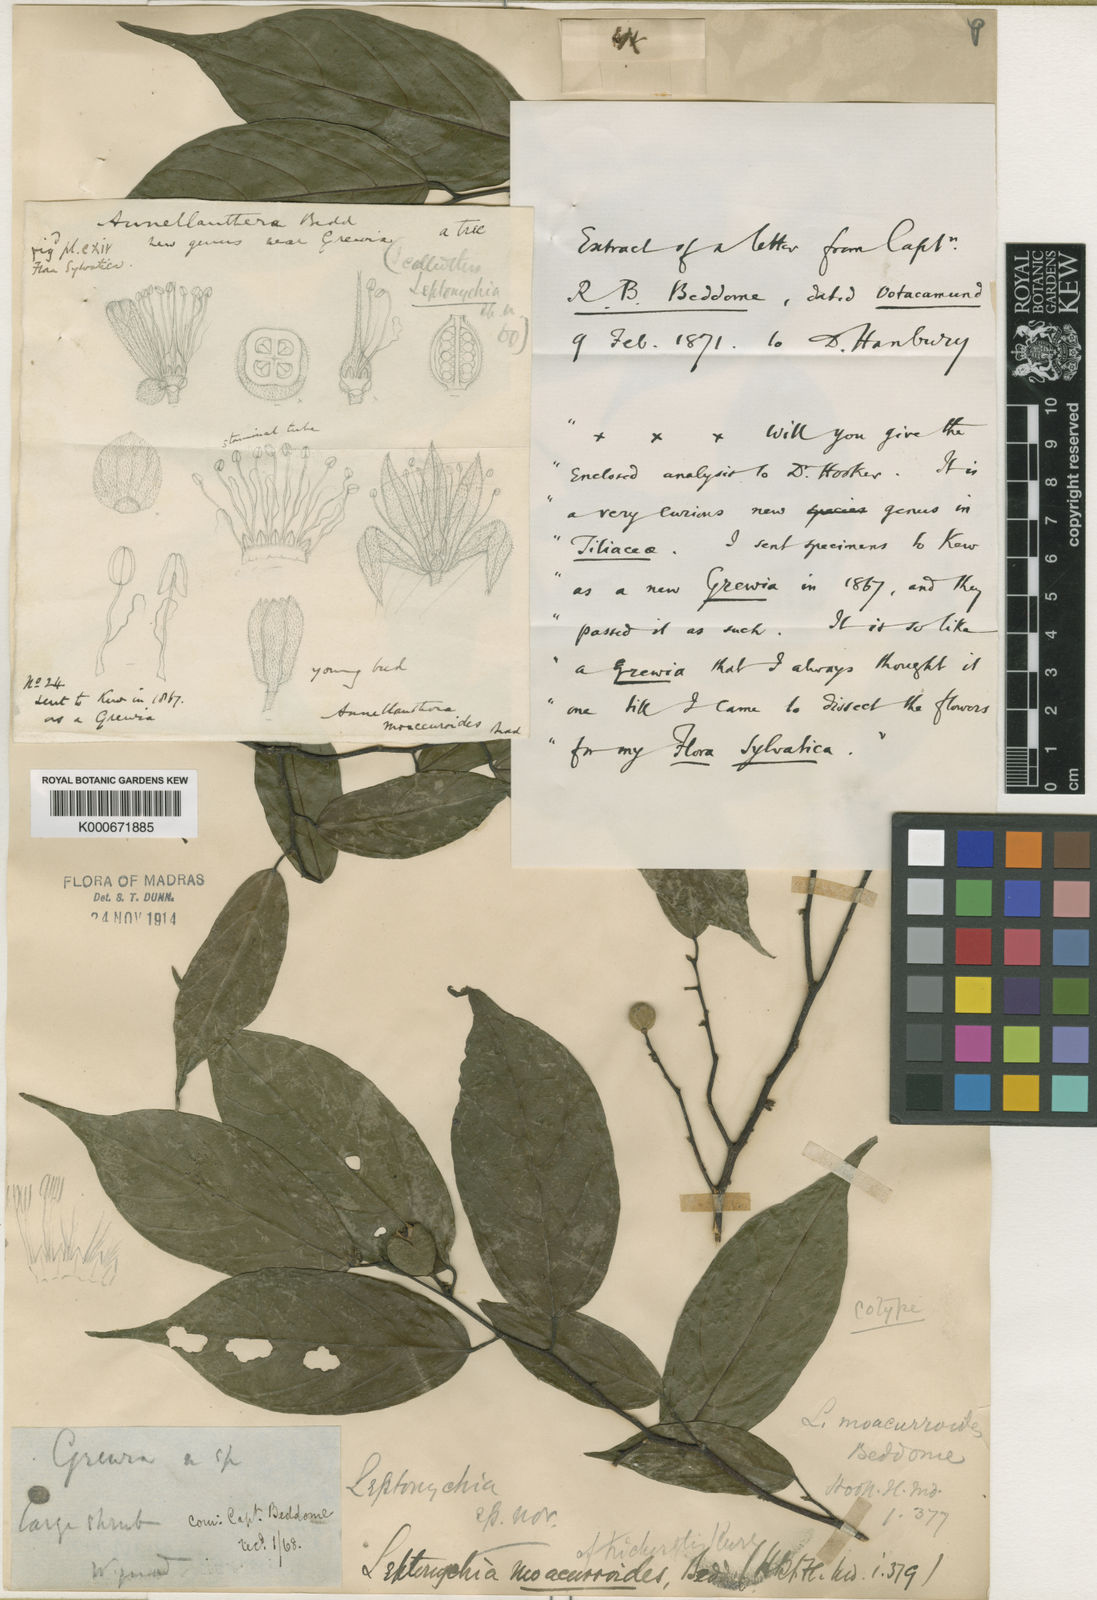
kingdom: Plantae
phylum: Tracheophyta
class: Magnoliopsida
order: Malvales
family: Malvaceae
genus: Leptonychia
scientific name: Leptonychia caudata
